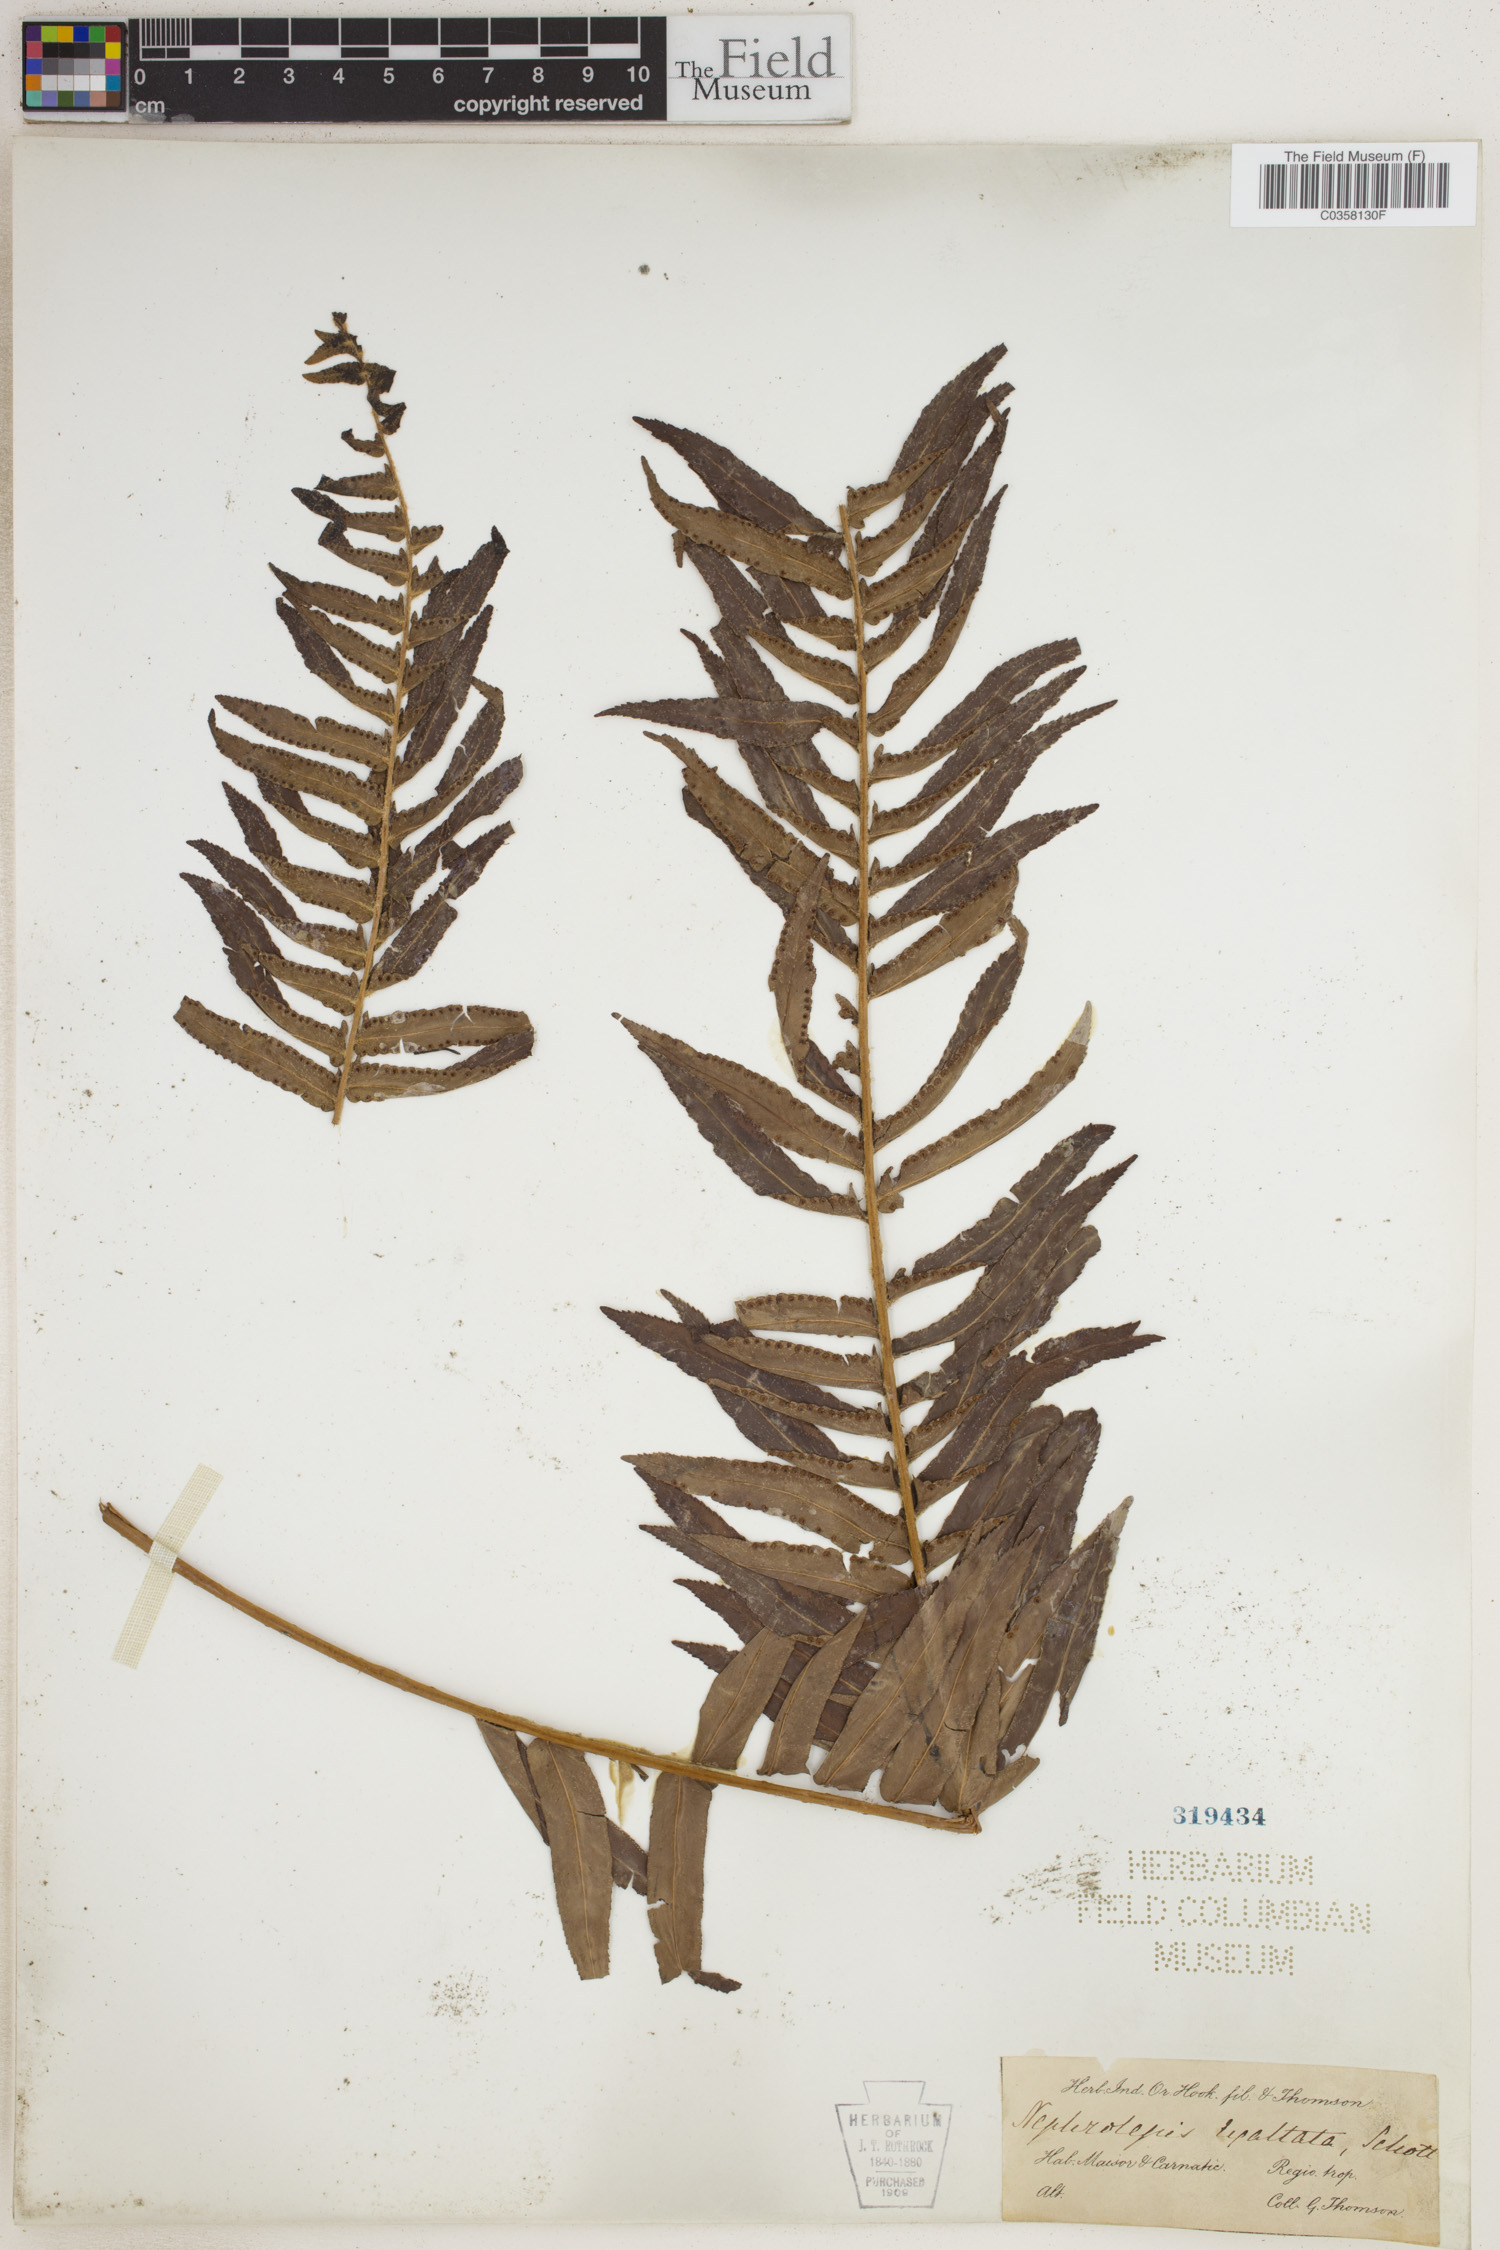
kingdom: Plantae
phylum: Tracheophyta
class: Polypodiopsida
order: Polypodiales
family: Nephrolepidaceae
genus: Nephrolepis
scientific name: Nephrolepis cordifolia
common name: Narrow swordfern
